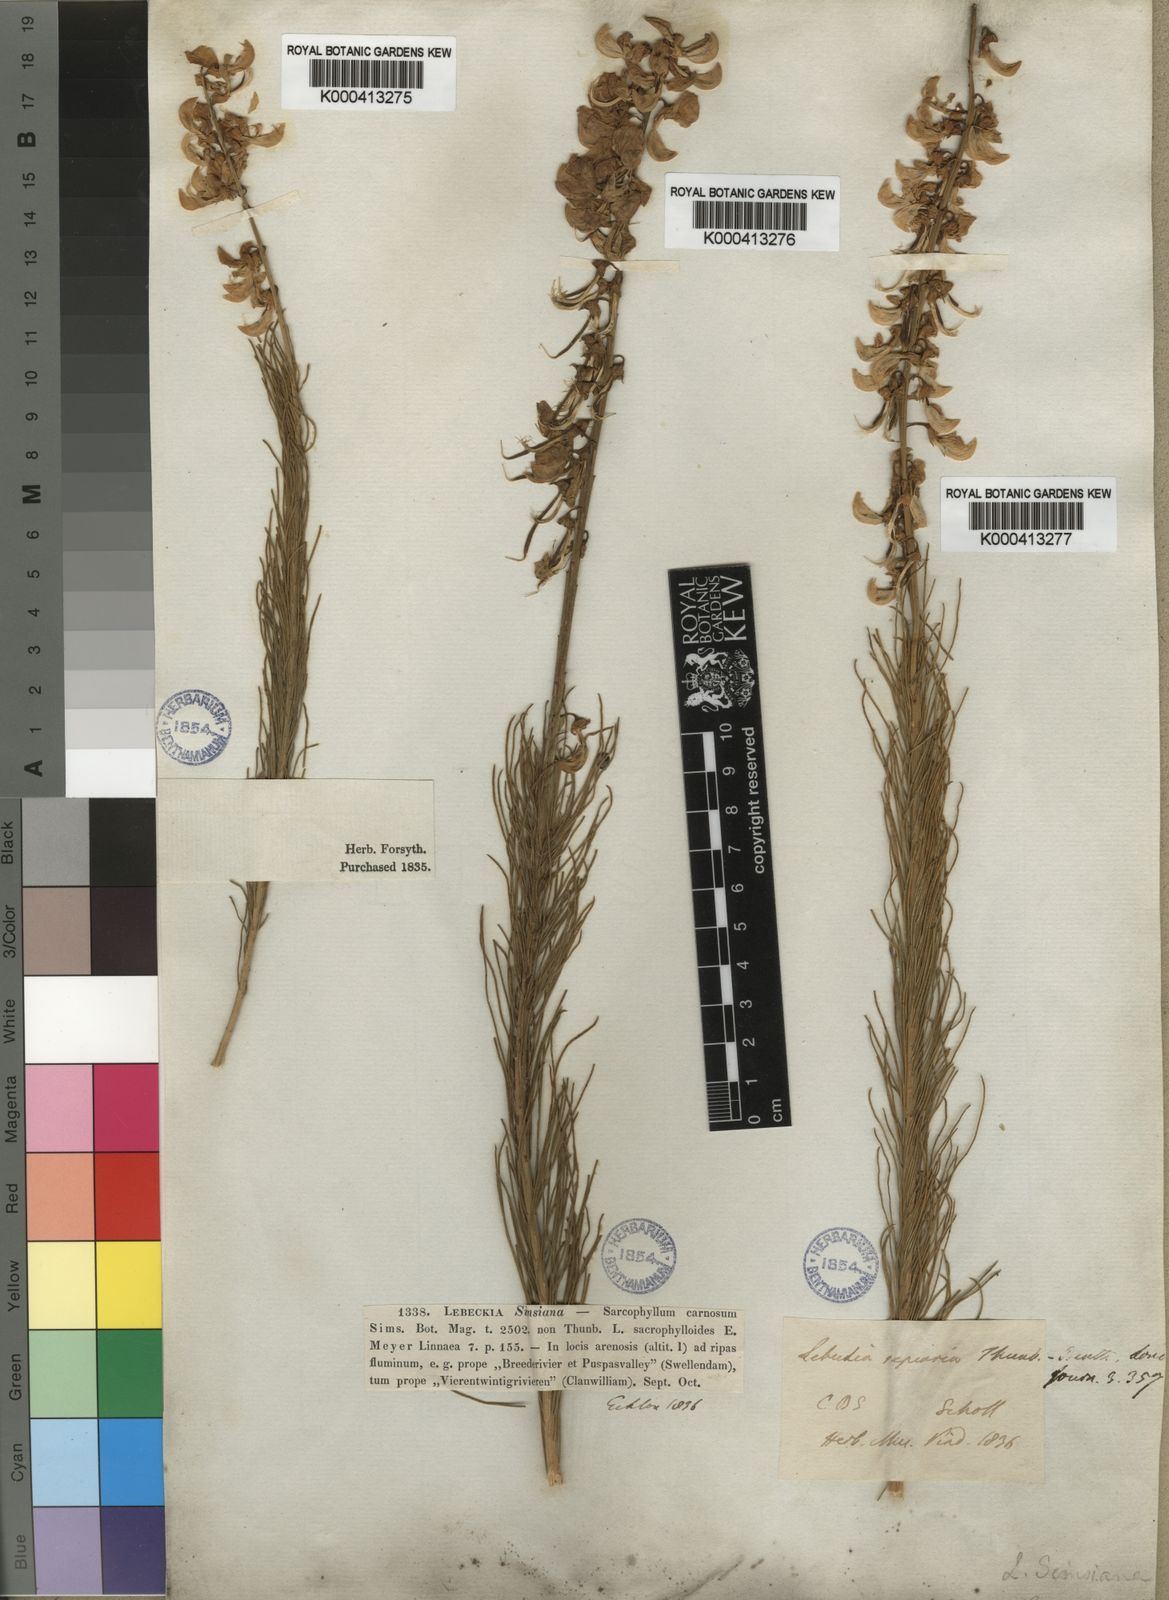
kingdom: Plantae
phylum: Tracheophyta
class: Magnoliopsida
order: Fabales
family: Fabaceae
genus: Lebeckia
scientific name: Lebeckia sepiaria
